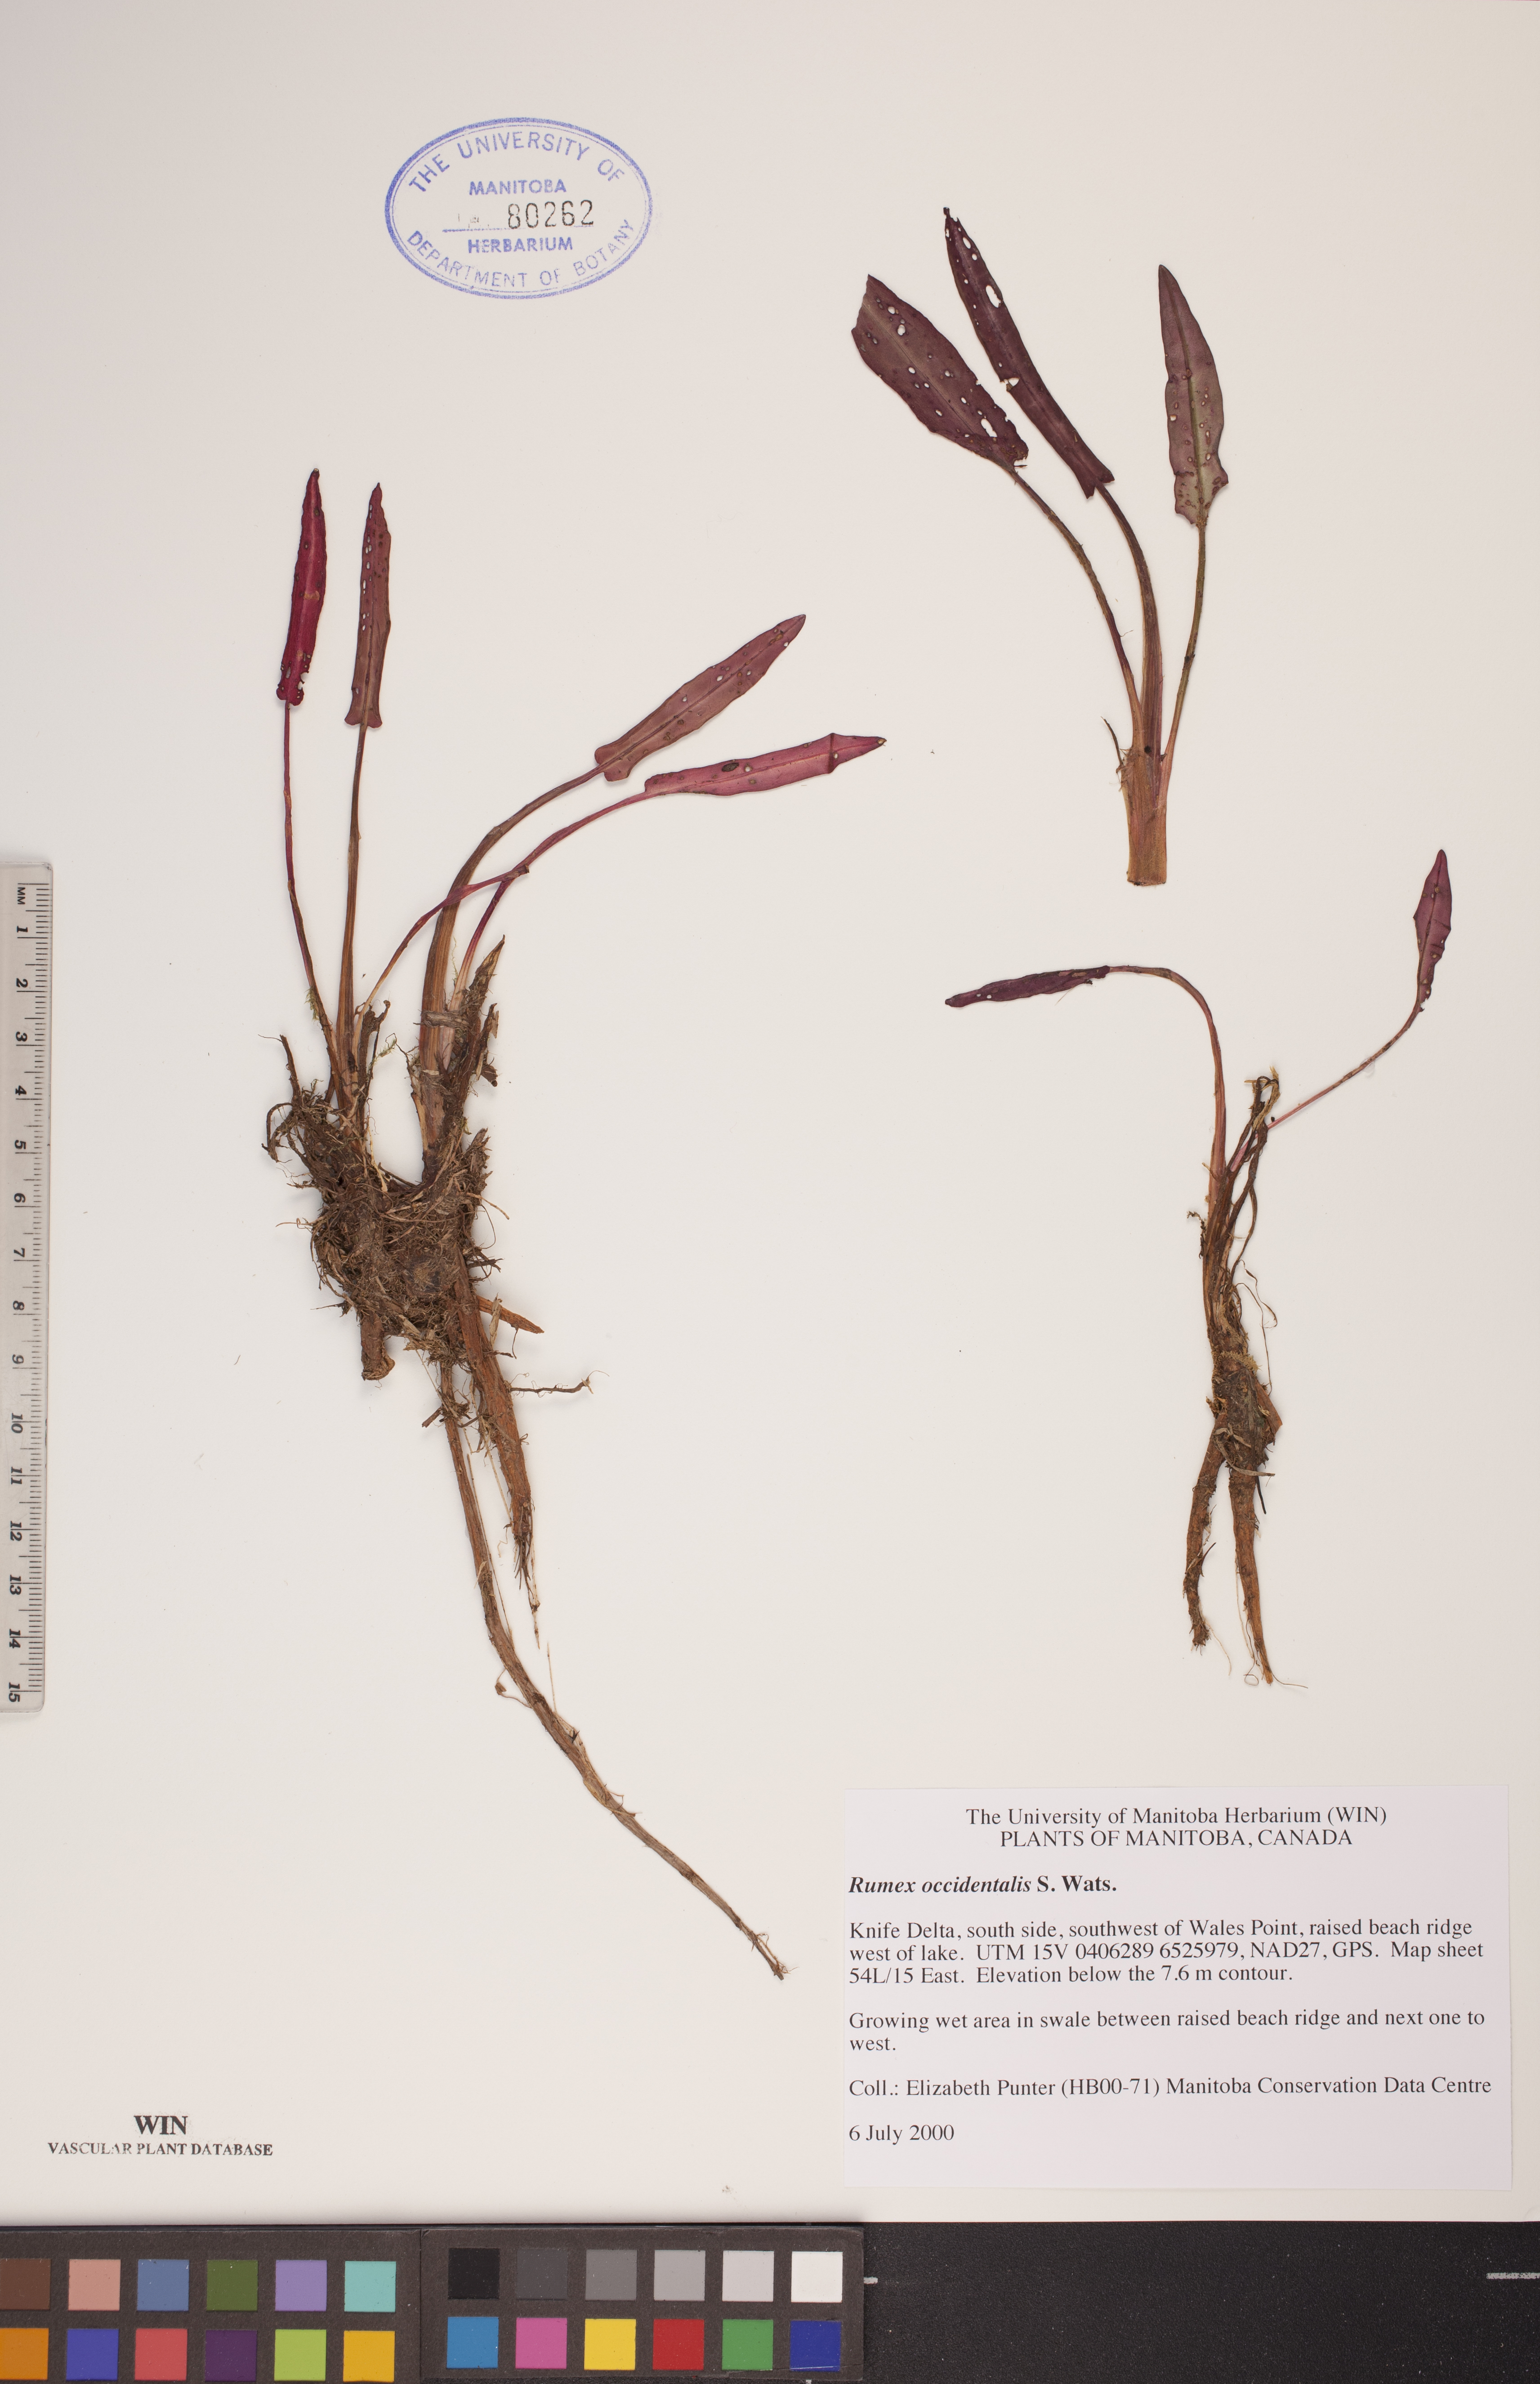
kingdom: Plantae
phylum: Tracheophyta
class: Magnoliopsida
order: Caryophyllales
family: Polygonaceae
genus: Rumex
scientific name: Rumex occidentalis
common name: Western dock
